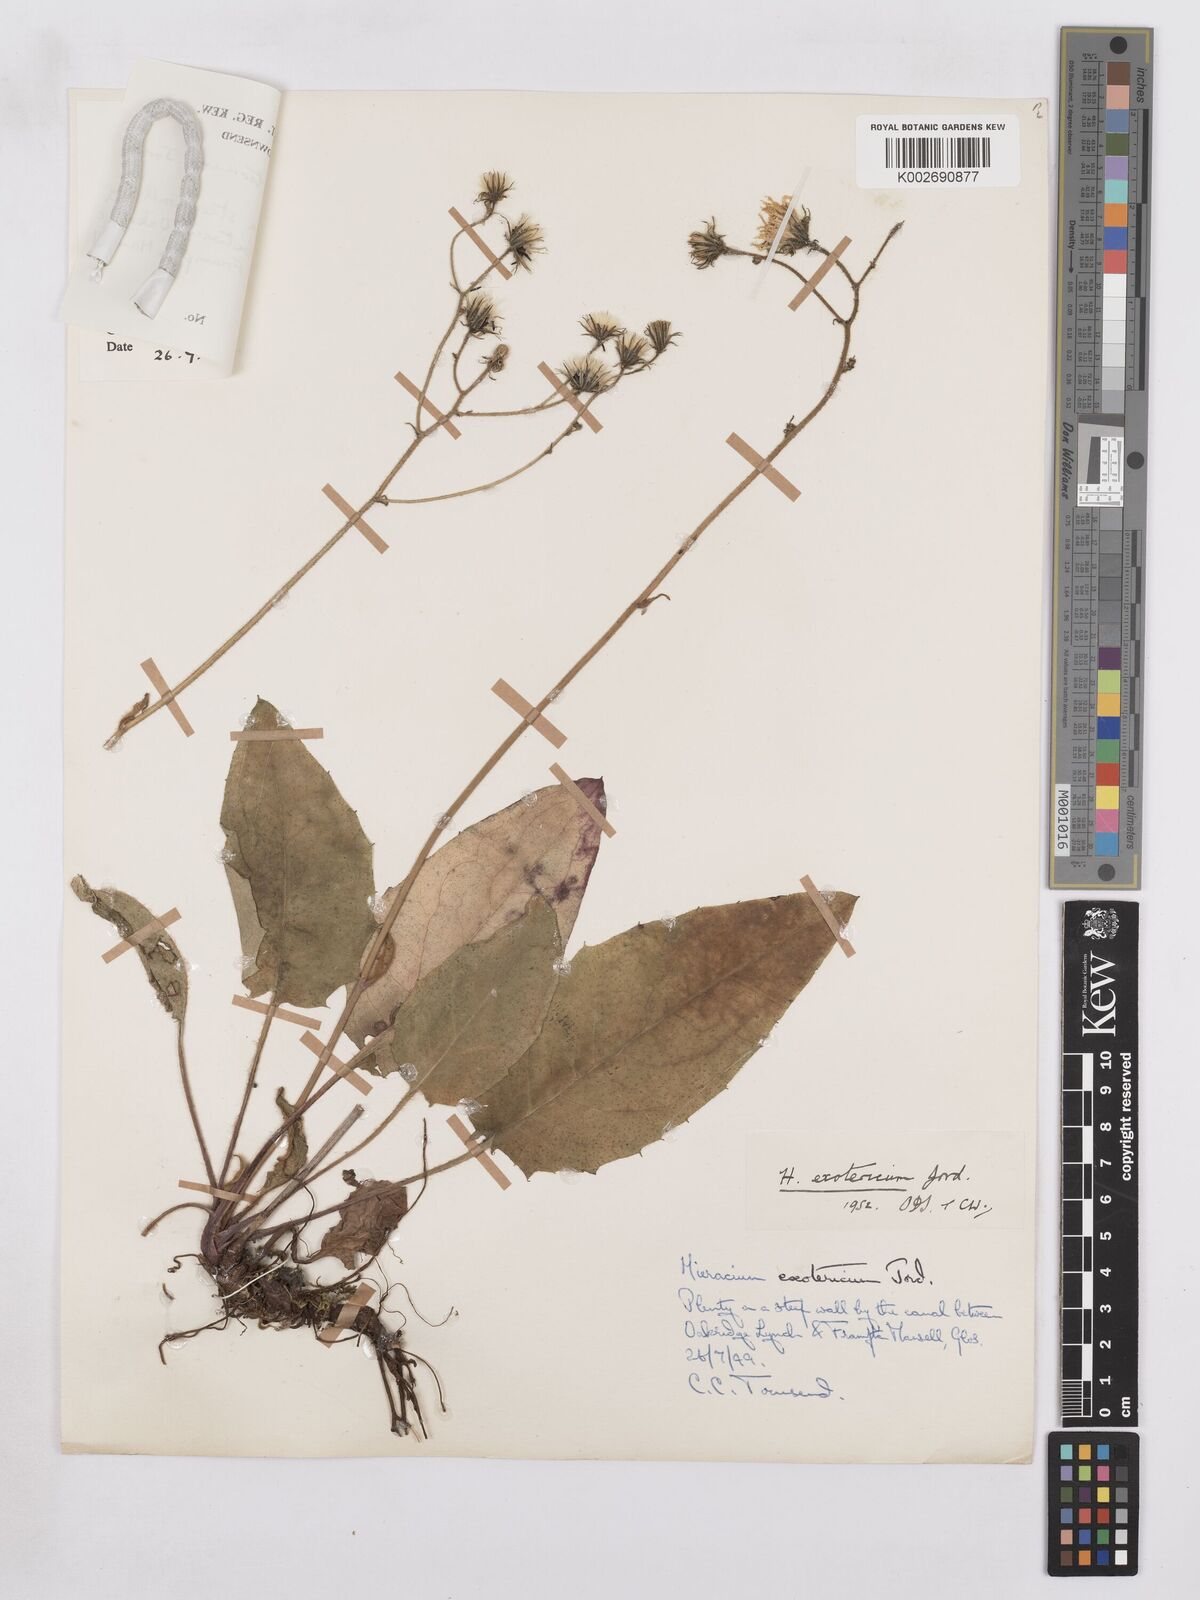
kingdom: Plantae
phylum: Tracheophyta
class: Magnoliopsida
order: Asterales
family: Asteraceae
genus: Hieracium
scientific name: Hieracium murorum
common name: Wall hawkweed
